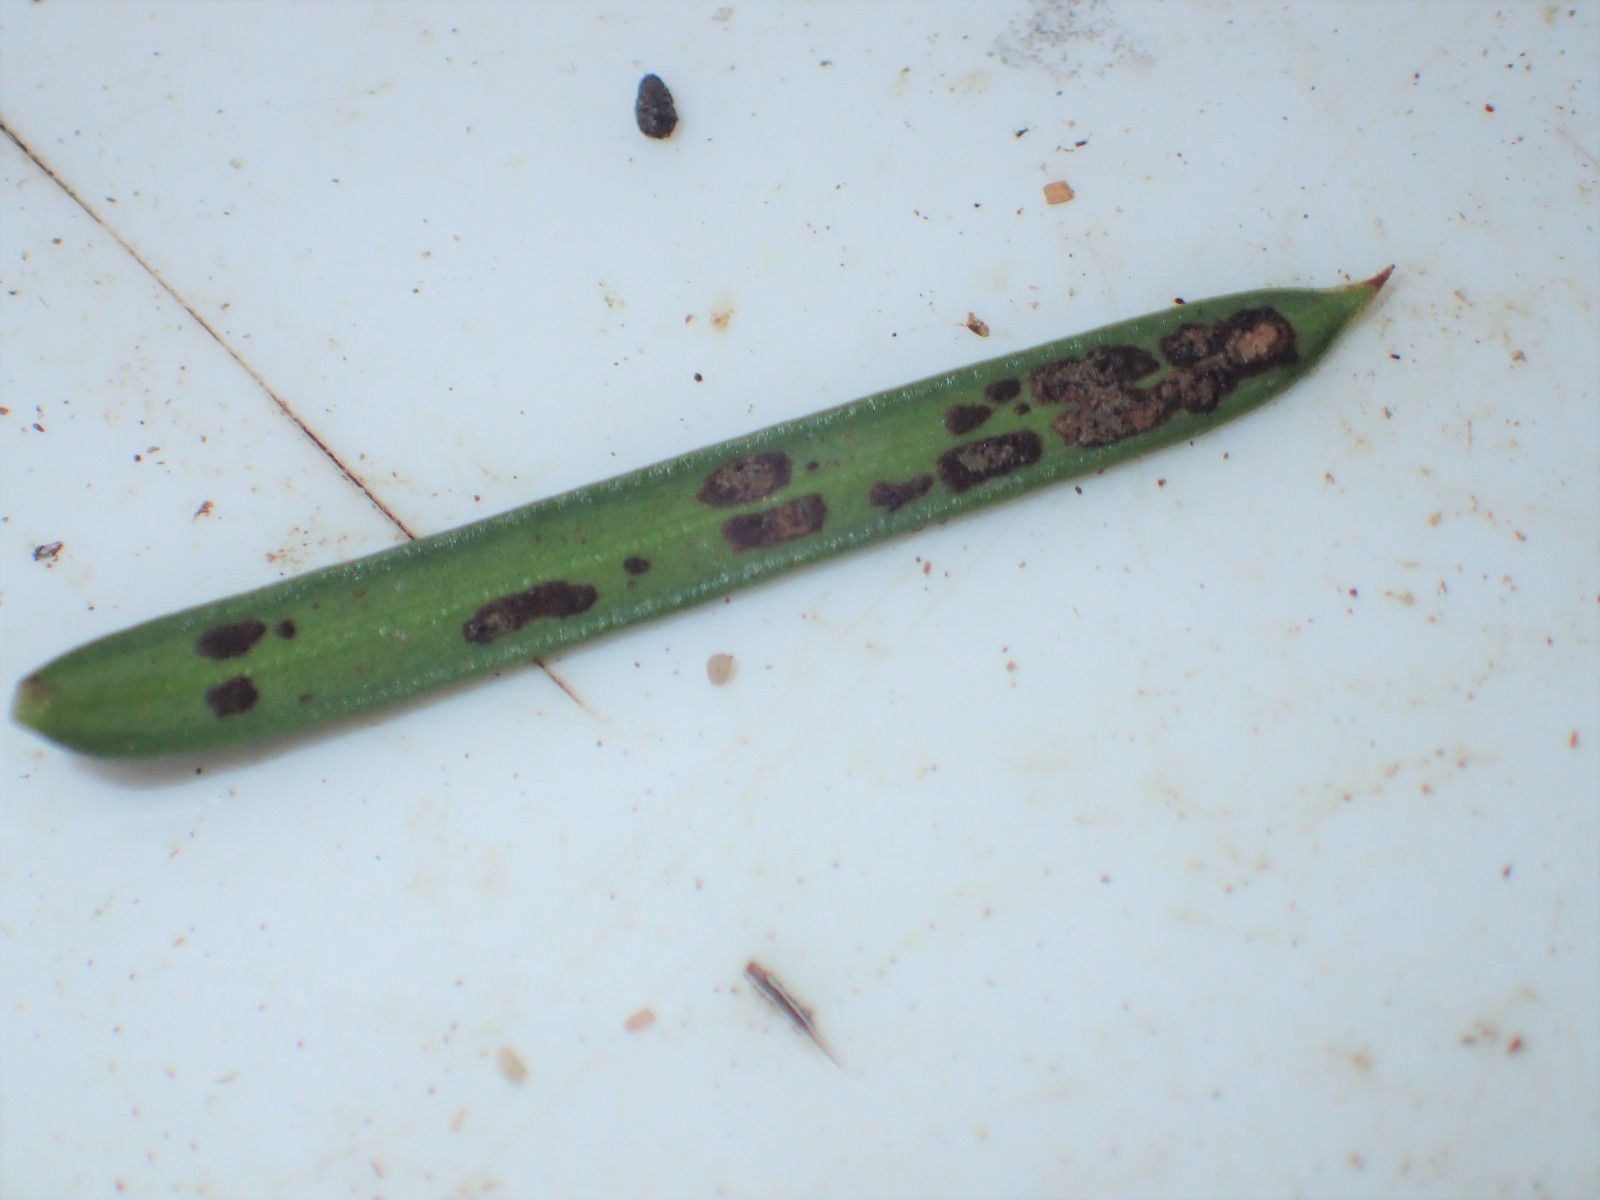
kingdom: Fungi
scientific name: Fungi
